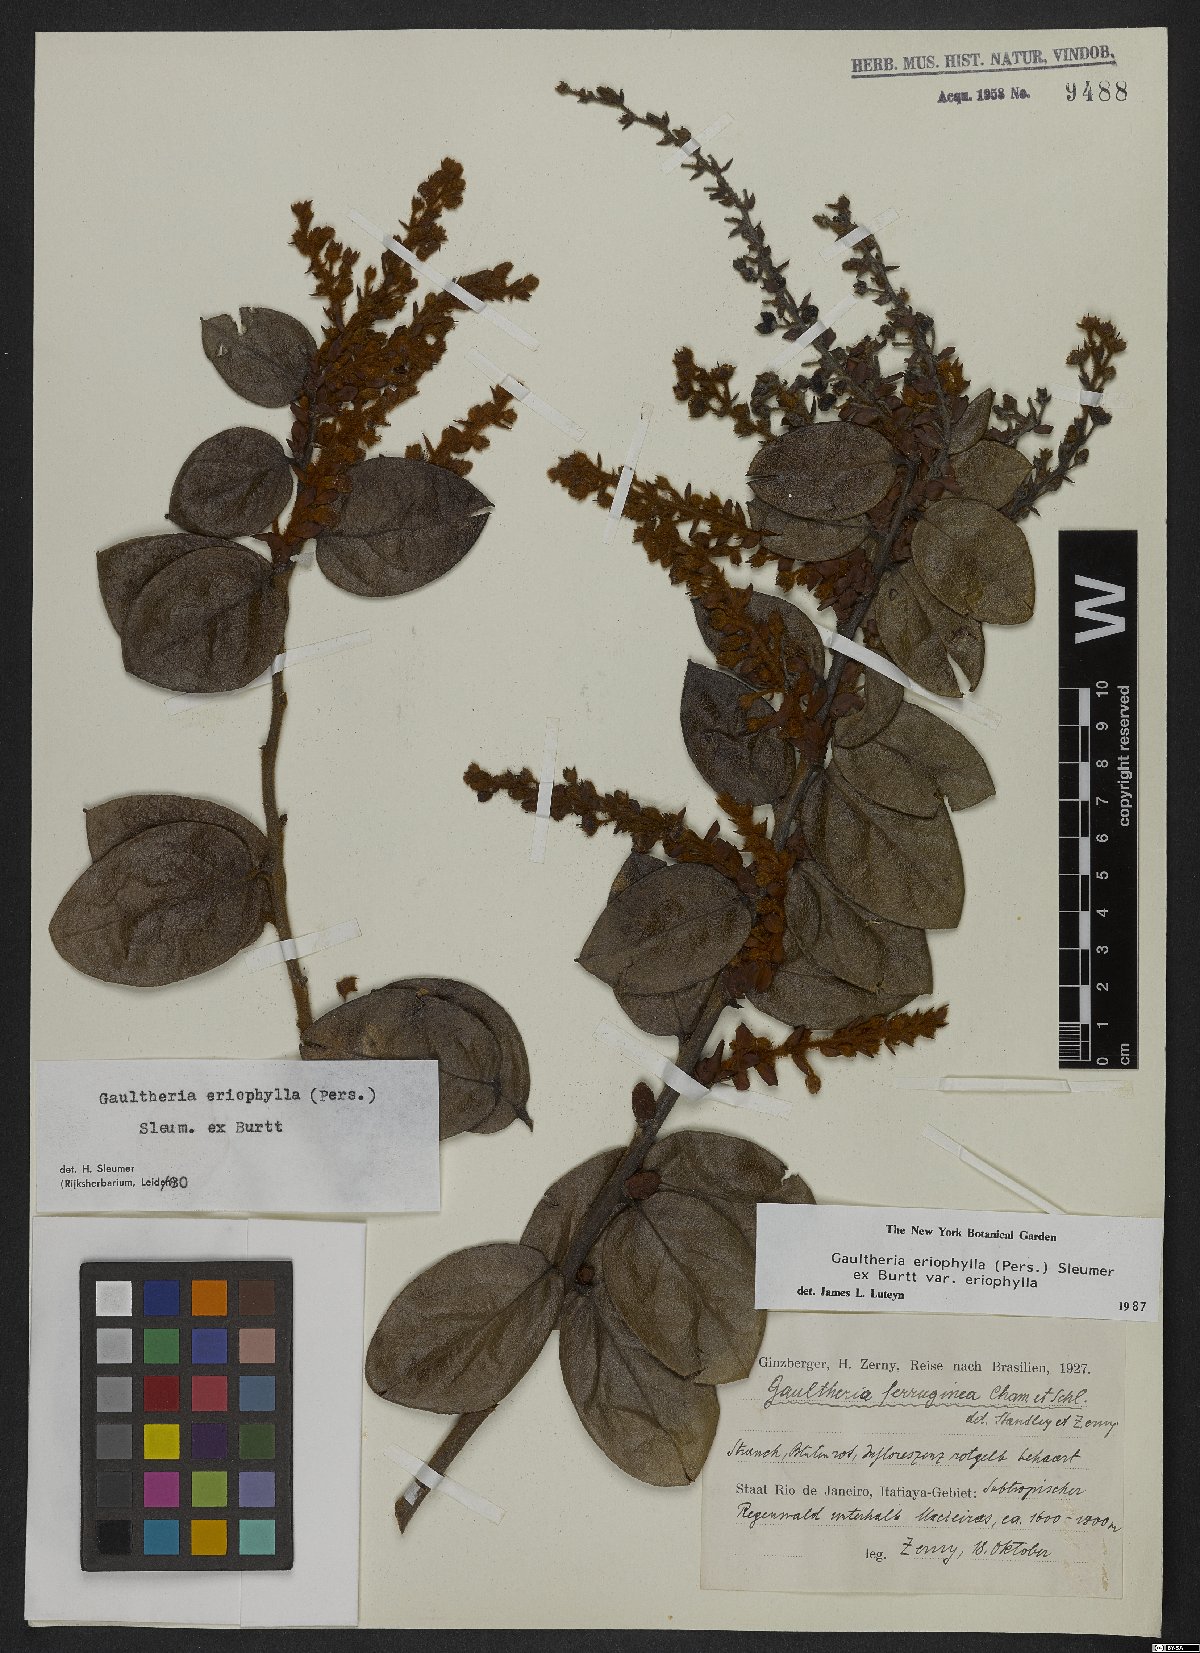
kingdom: Plantae
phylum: Tracheophyta
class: Magnoliopsida
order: Ericales
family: Ericaceae
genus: Gaultheria
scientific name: Gaultheria eriophylla
